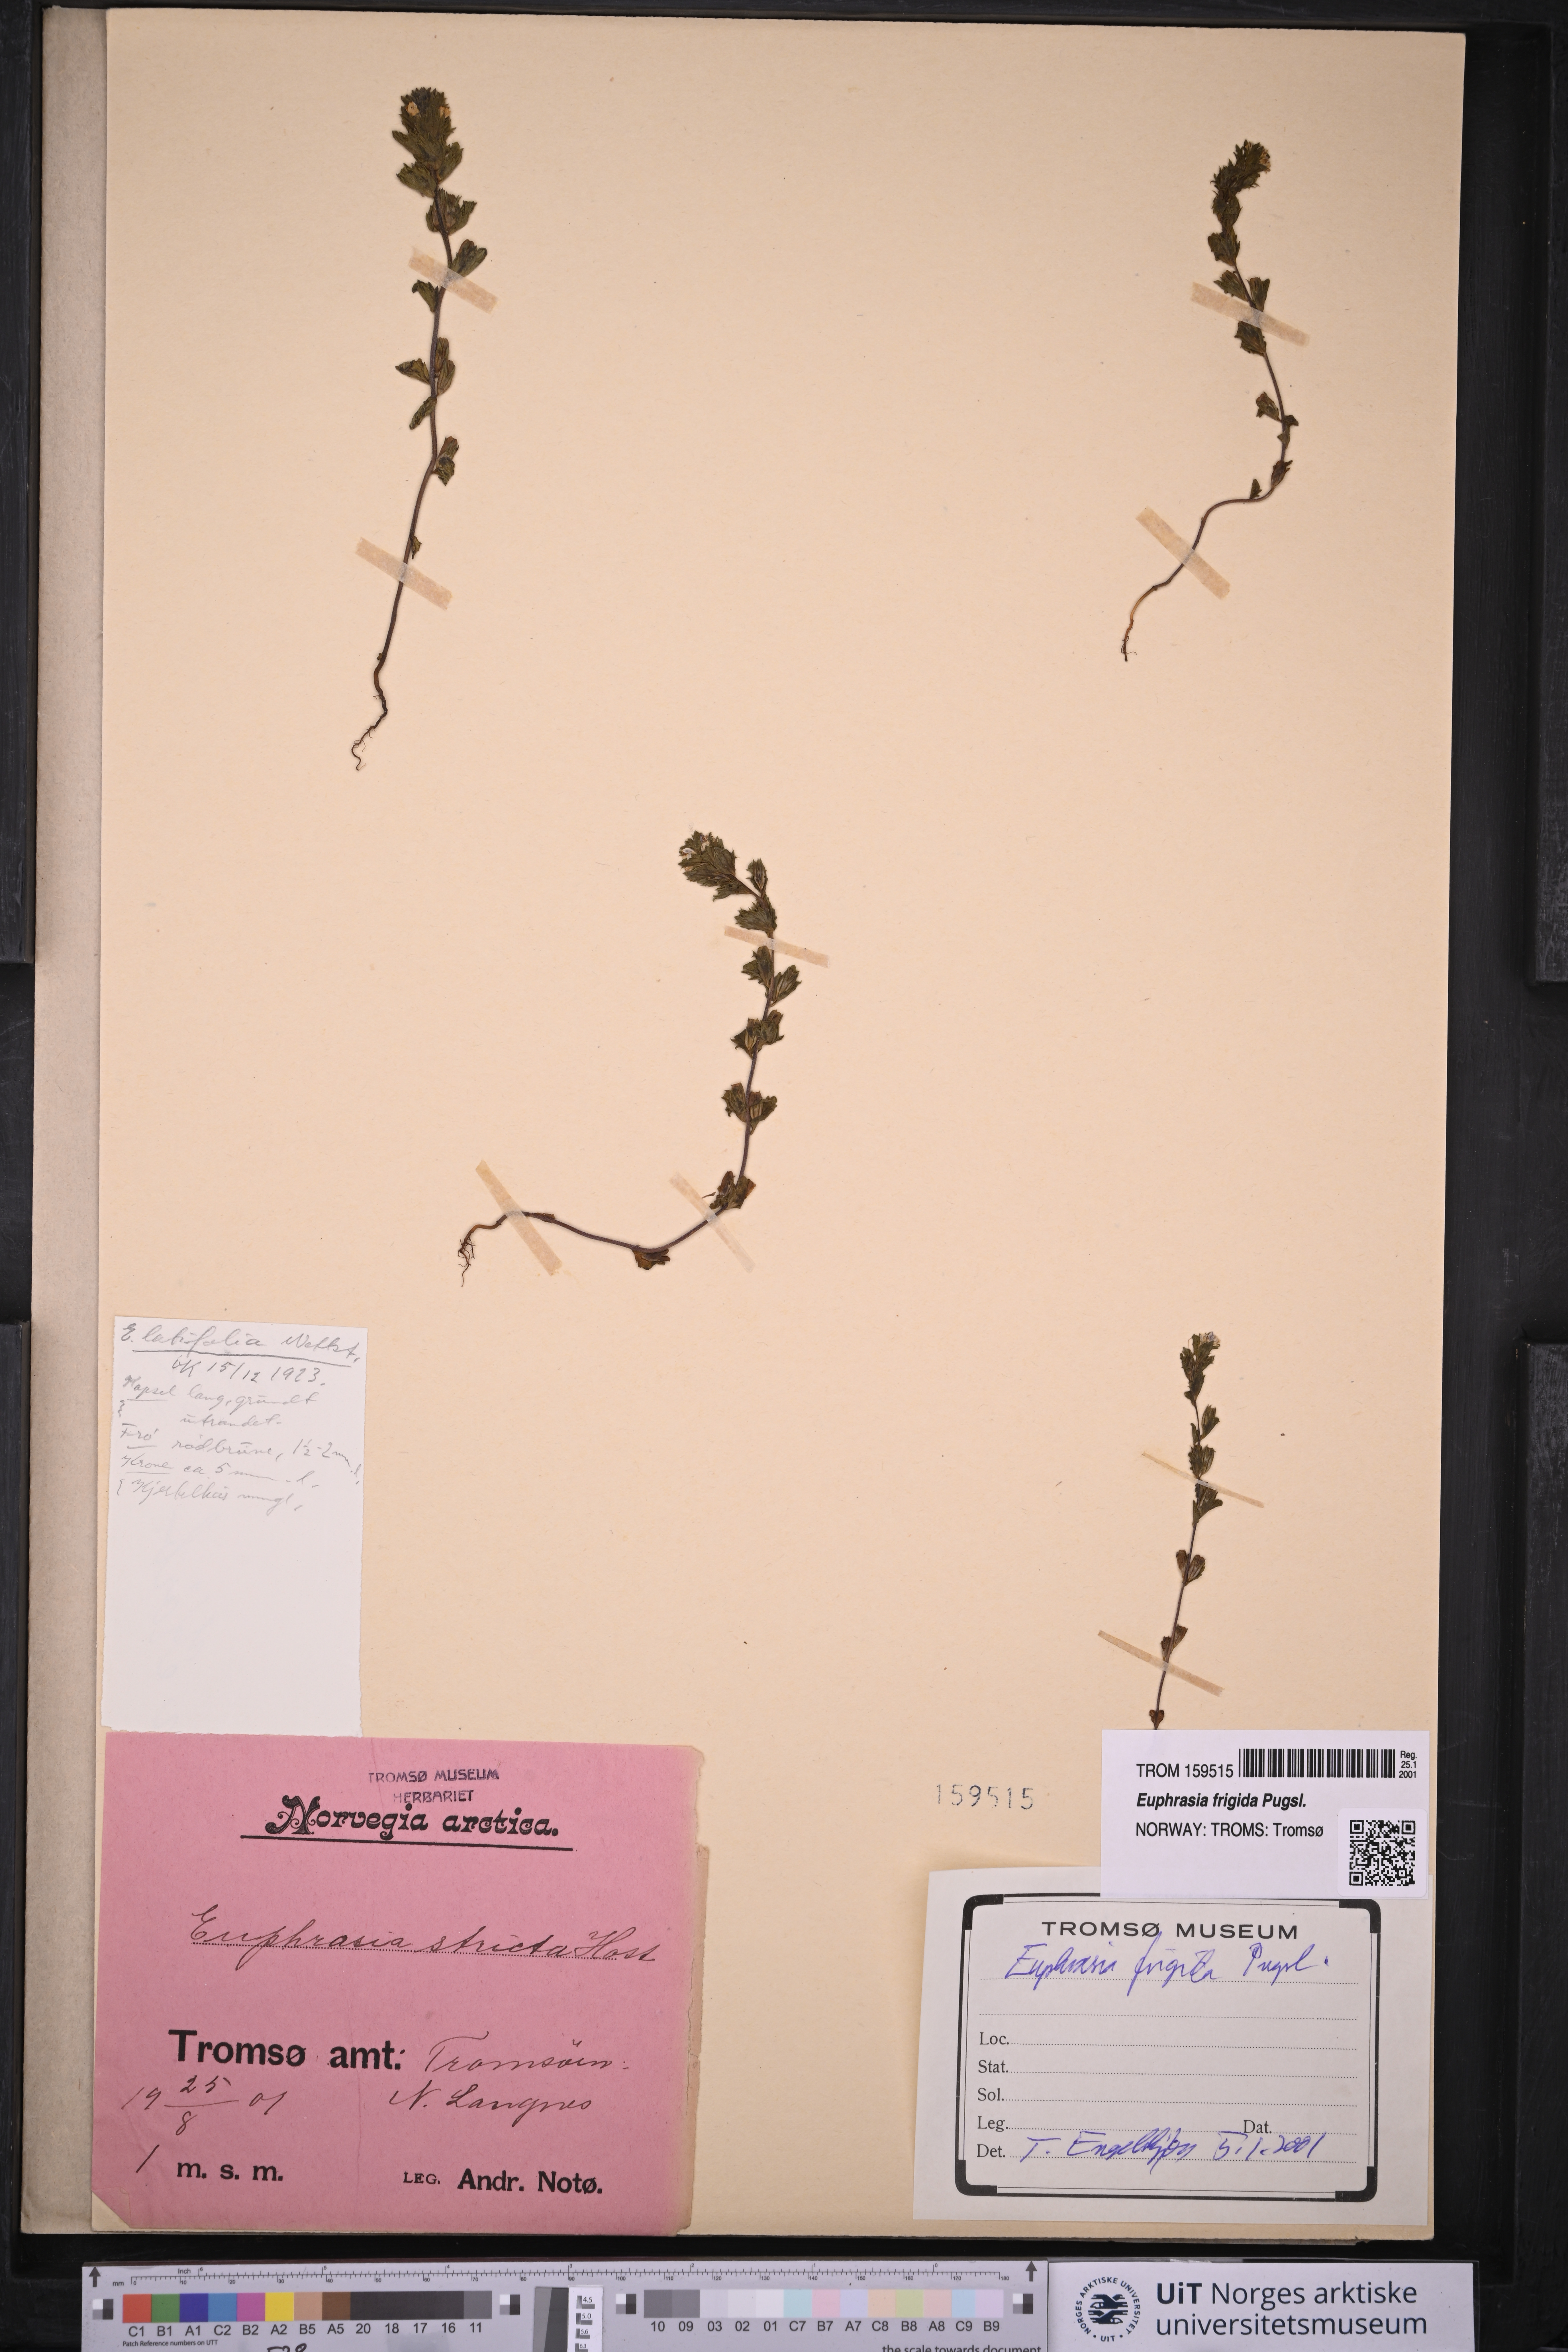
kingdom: Plantae
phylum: Tracheophyta
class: Magnoliopsida
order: Lamiales
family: Orobanchaceae
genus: Euphrasia
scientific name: Euphrasia frigida
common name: An eyebright
